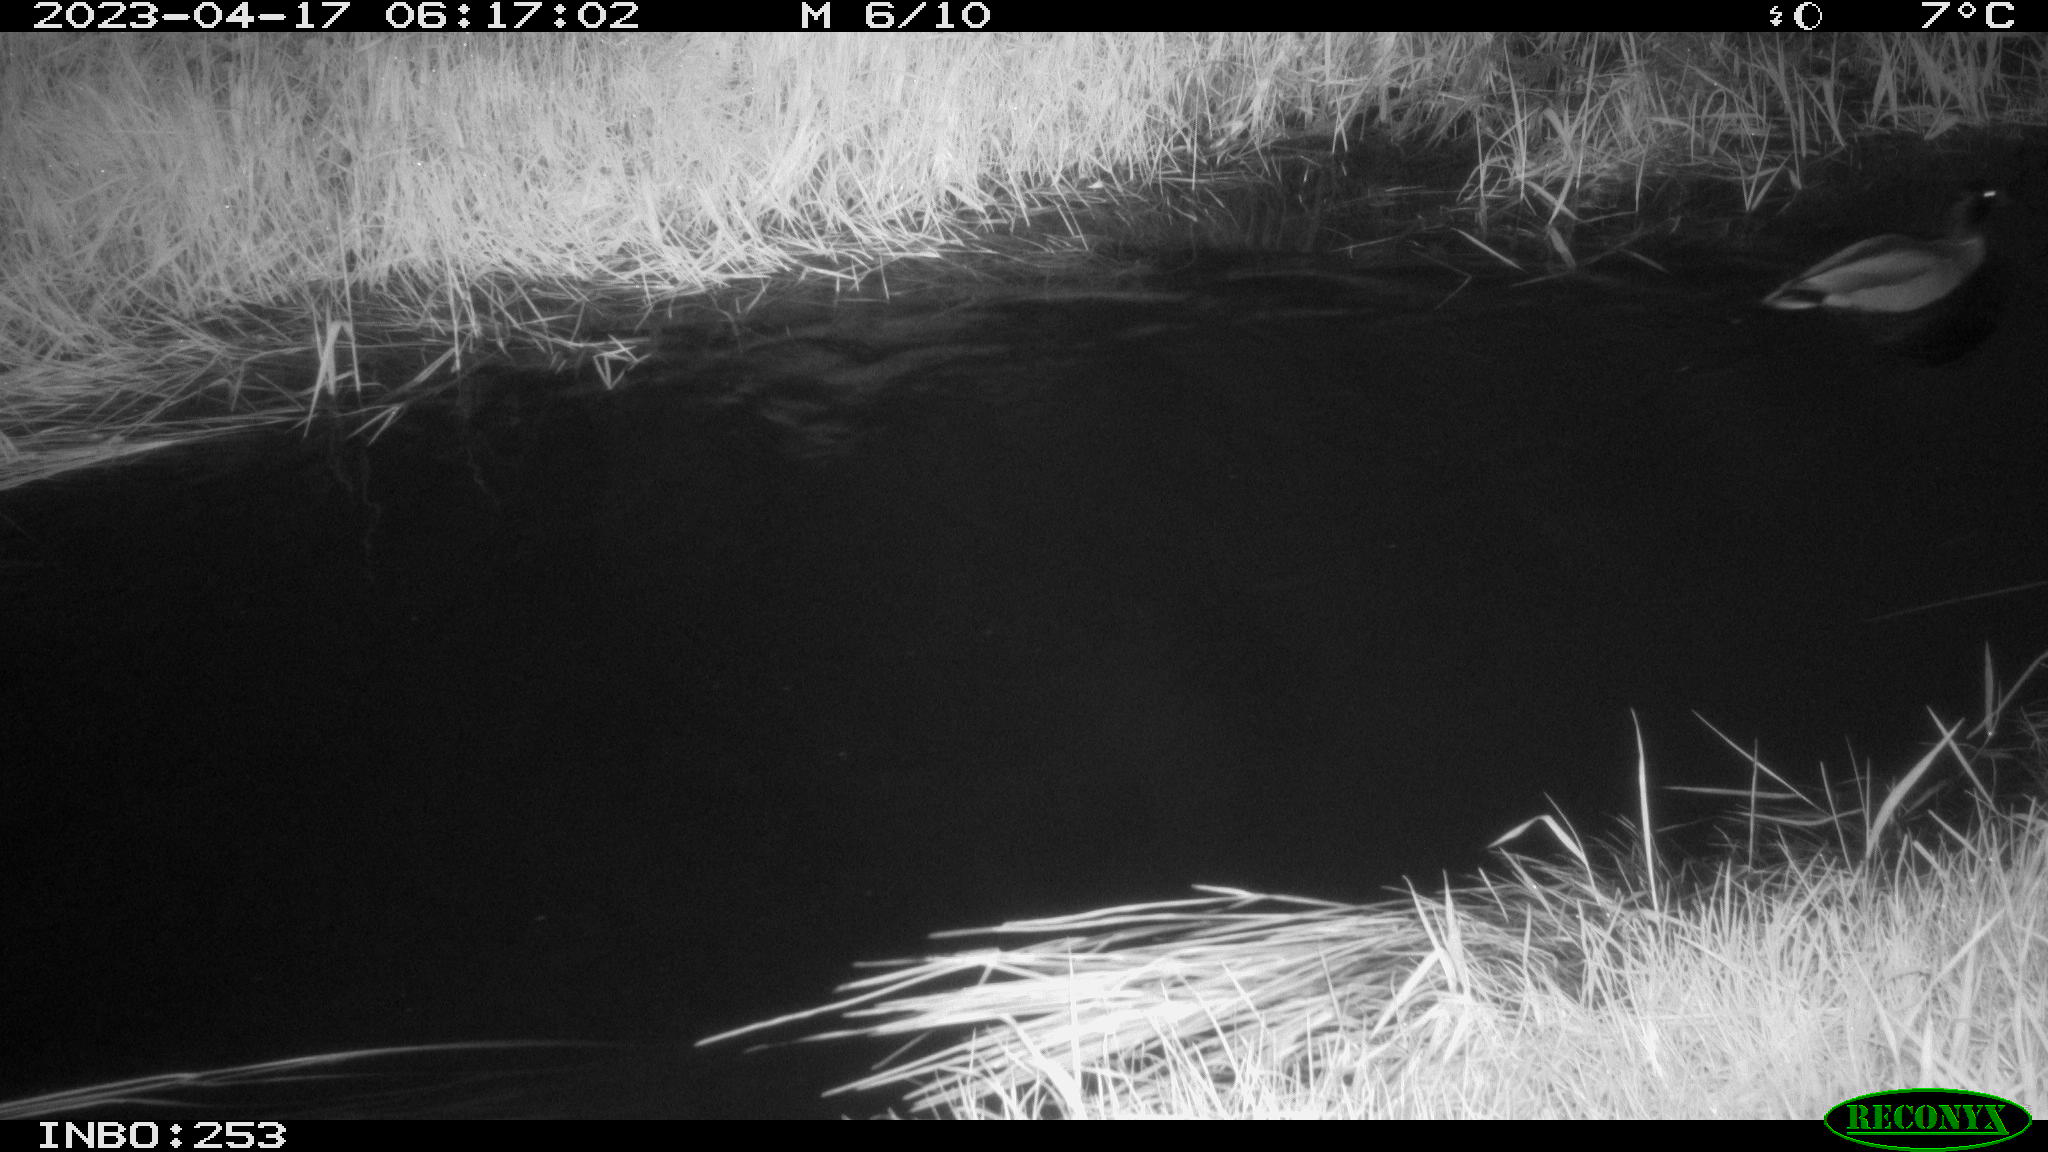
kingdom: Animalia
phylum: Chordata
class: Aves
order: Anseriformes
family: Anatidae
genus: Anas
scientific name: Anas
